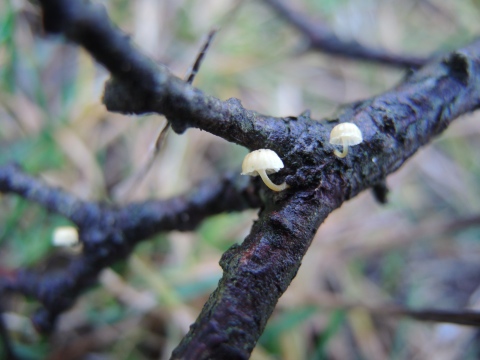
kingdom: Fungi
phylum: Basidiomycota
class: Agaricomycetes
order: Agaricales
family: Mycenaceae
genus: Mycena
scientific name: Mycena juniperina
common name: ene-Huesvamp
